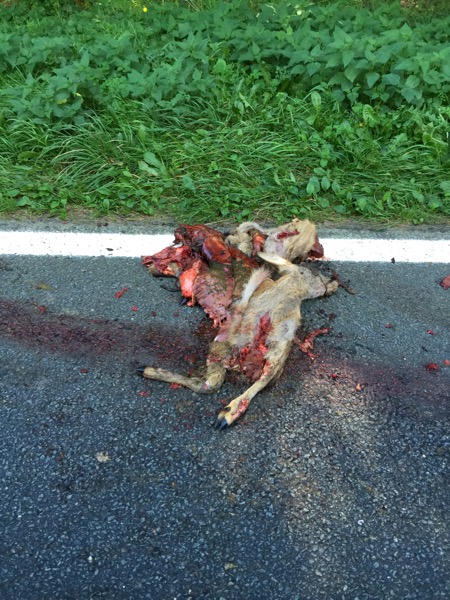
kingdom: Animalia
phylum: Chordata
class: Mammalia
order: Artiodactyla
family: Cervidae
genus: Capreolus
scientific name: Capreolus capreolus
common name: Western roe deer
